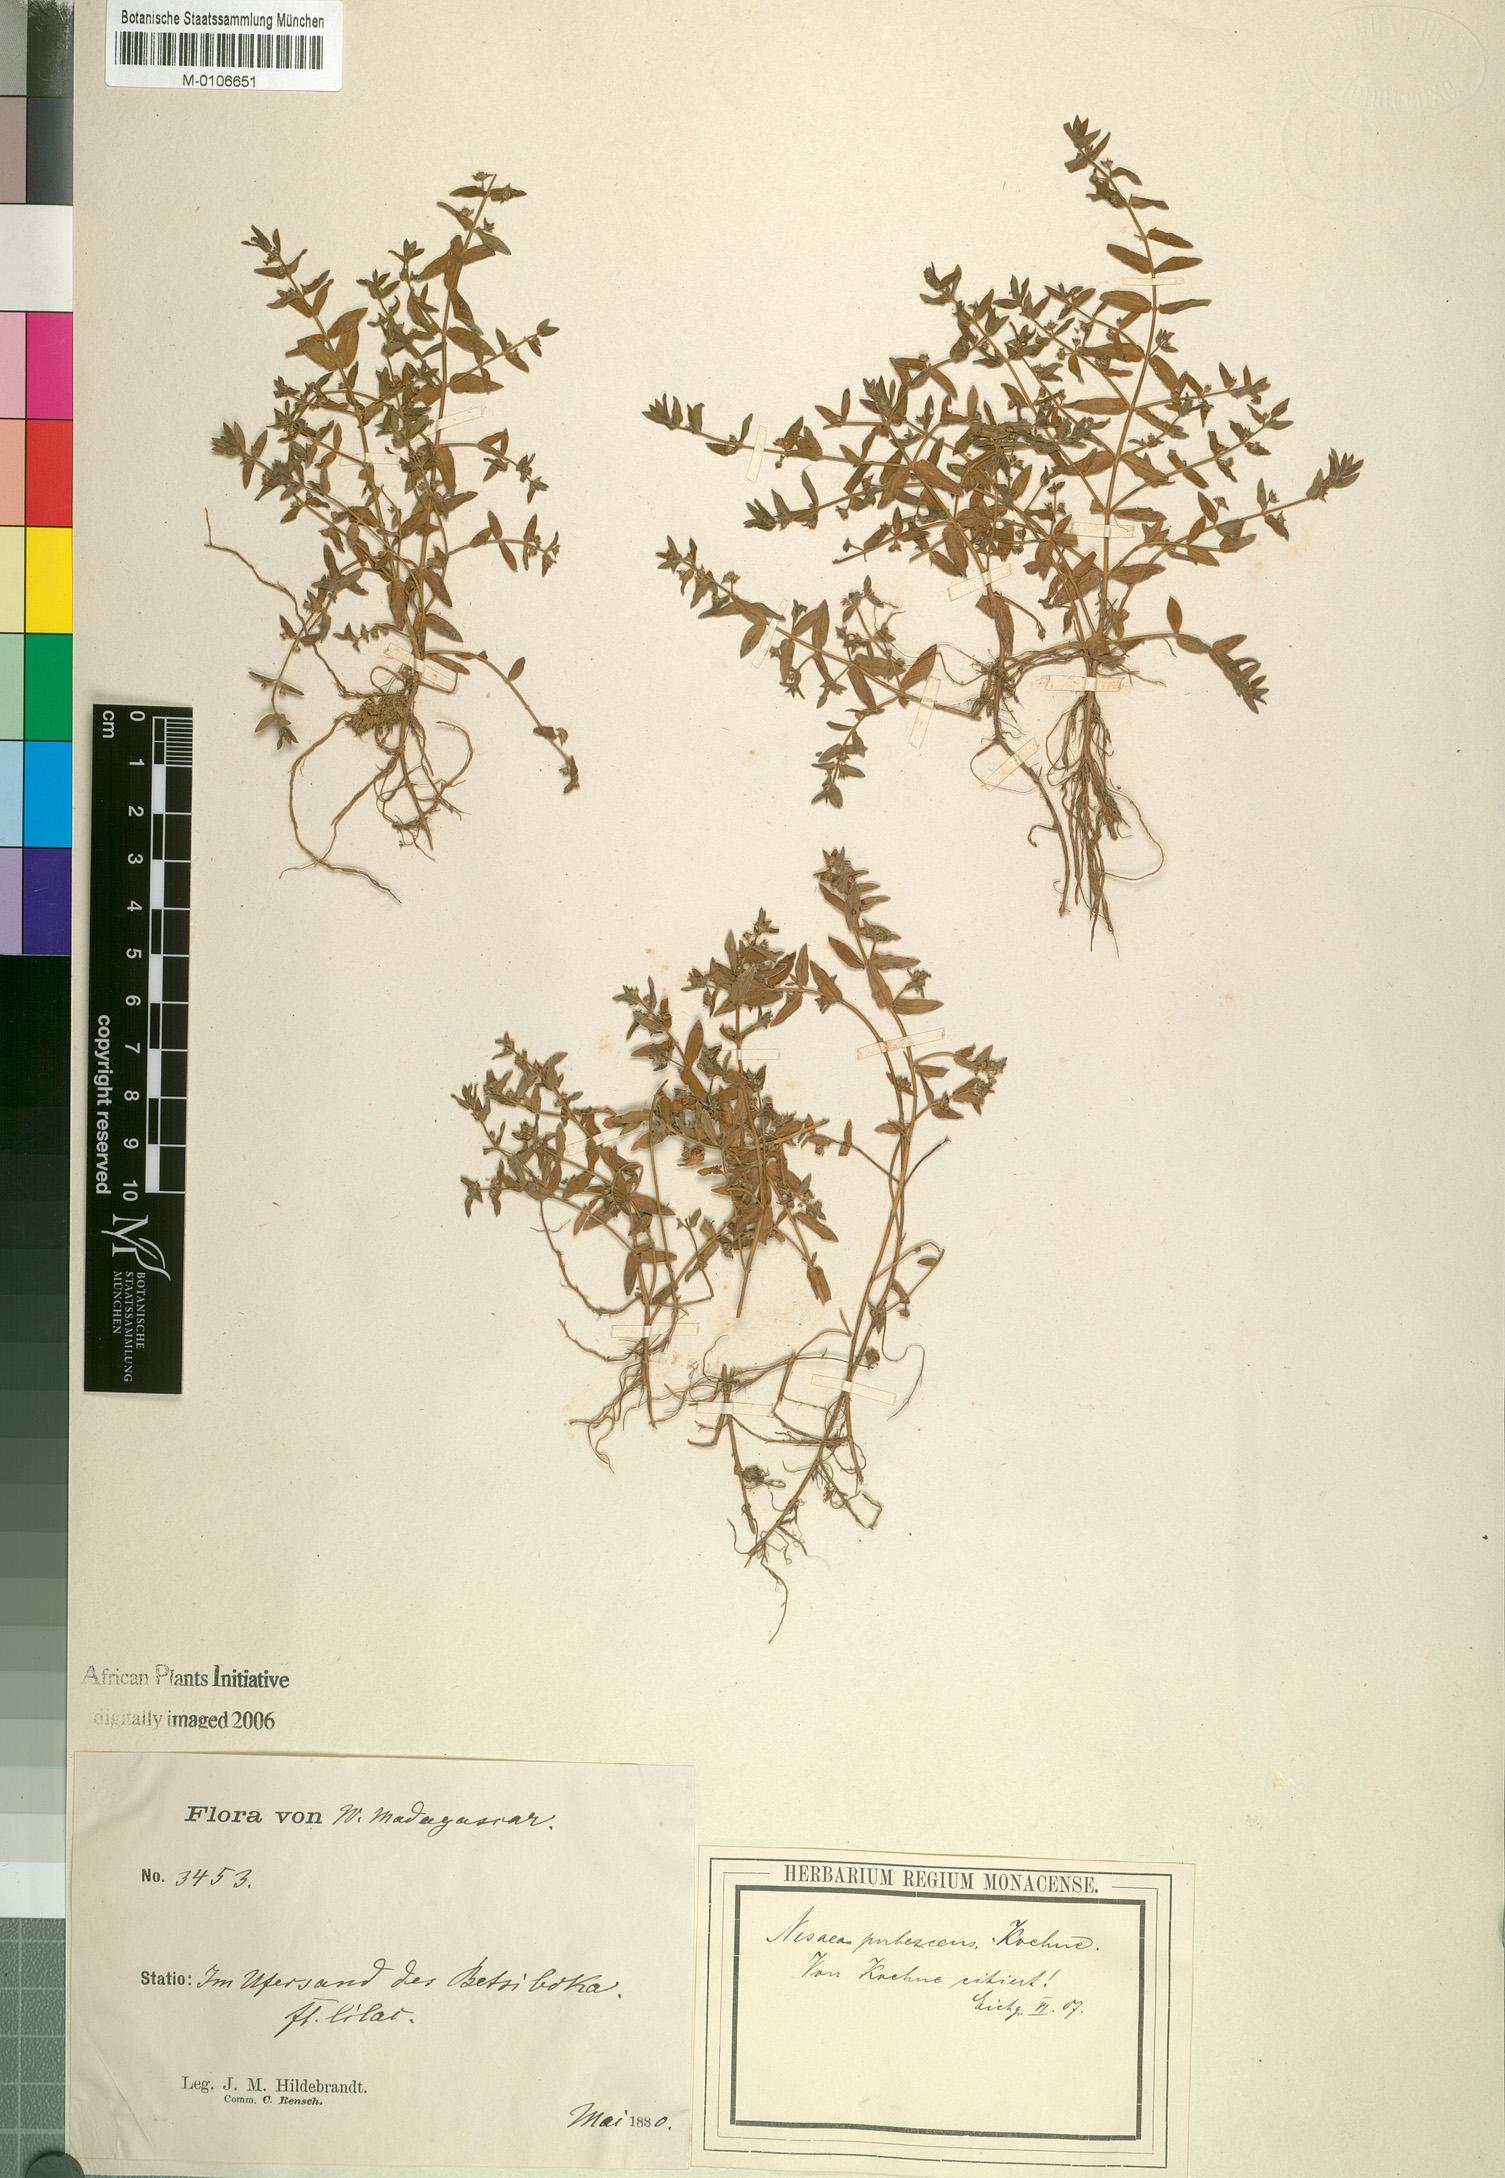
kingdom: Plantae
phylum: Tracheophyta
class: Magnoliopsida
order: Myrtales
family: Lythraceae
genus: Ammannia
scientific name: Ammannia pubescens
